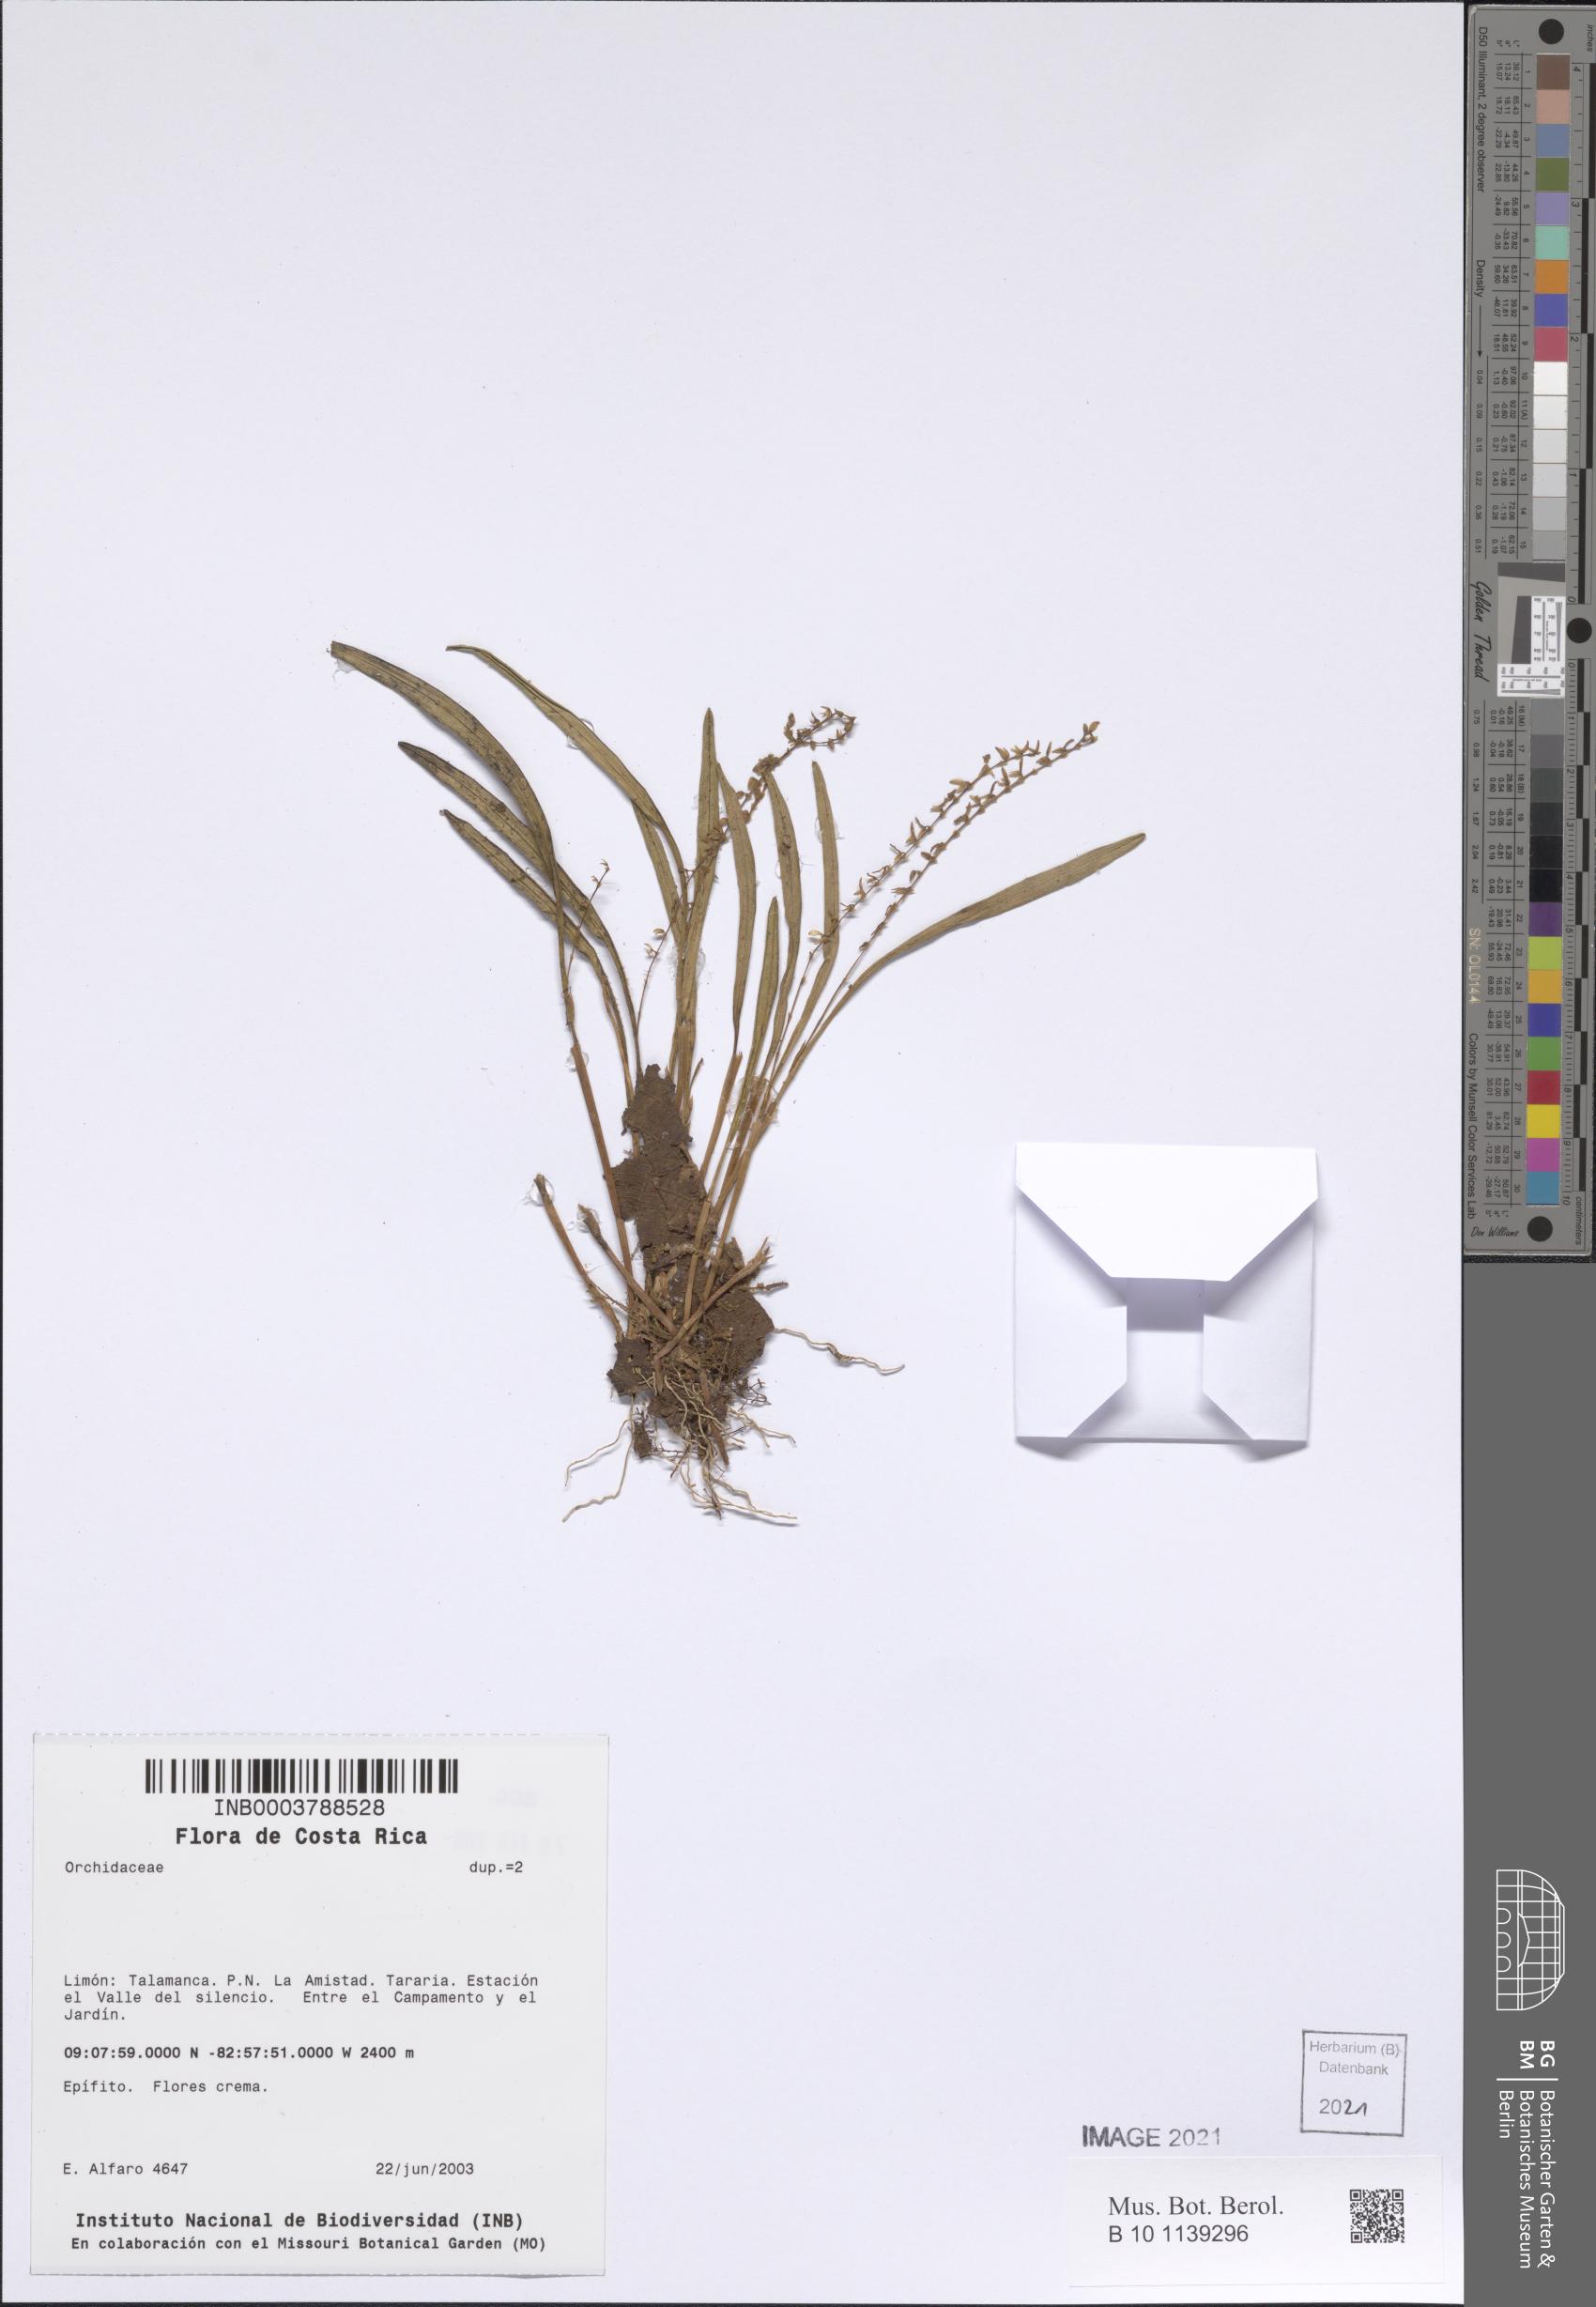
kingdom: Plantae
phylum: Tracheophyta
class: Liliopsida
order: Asparagales
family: Orchidaceae
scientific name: Orchidaceae
